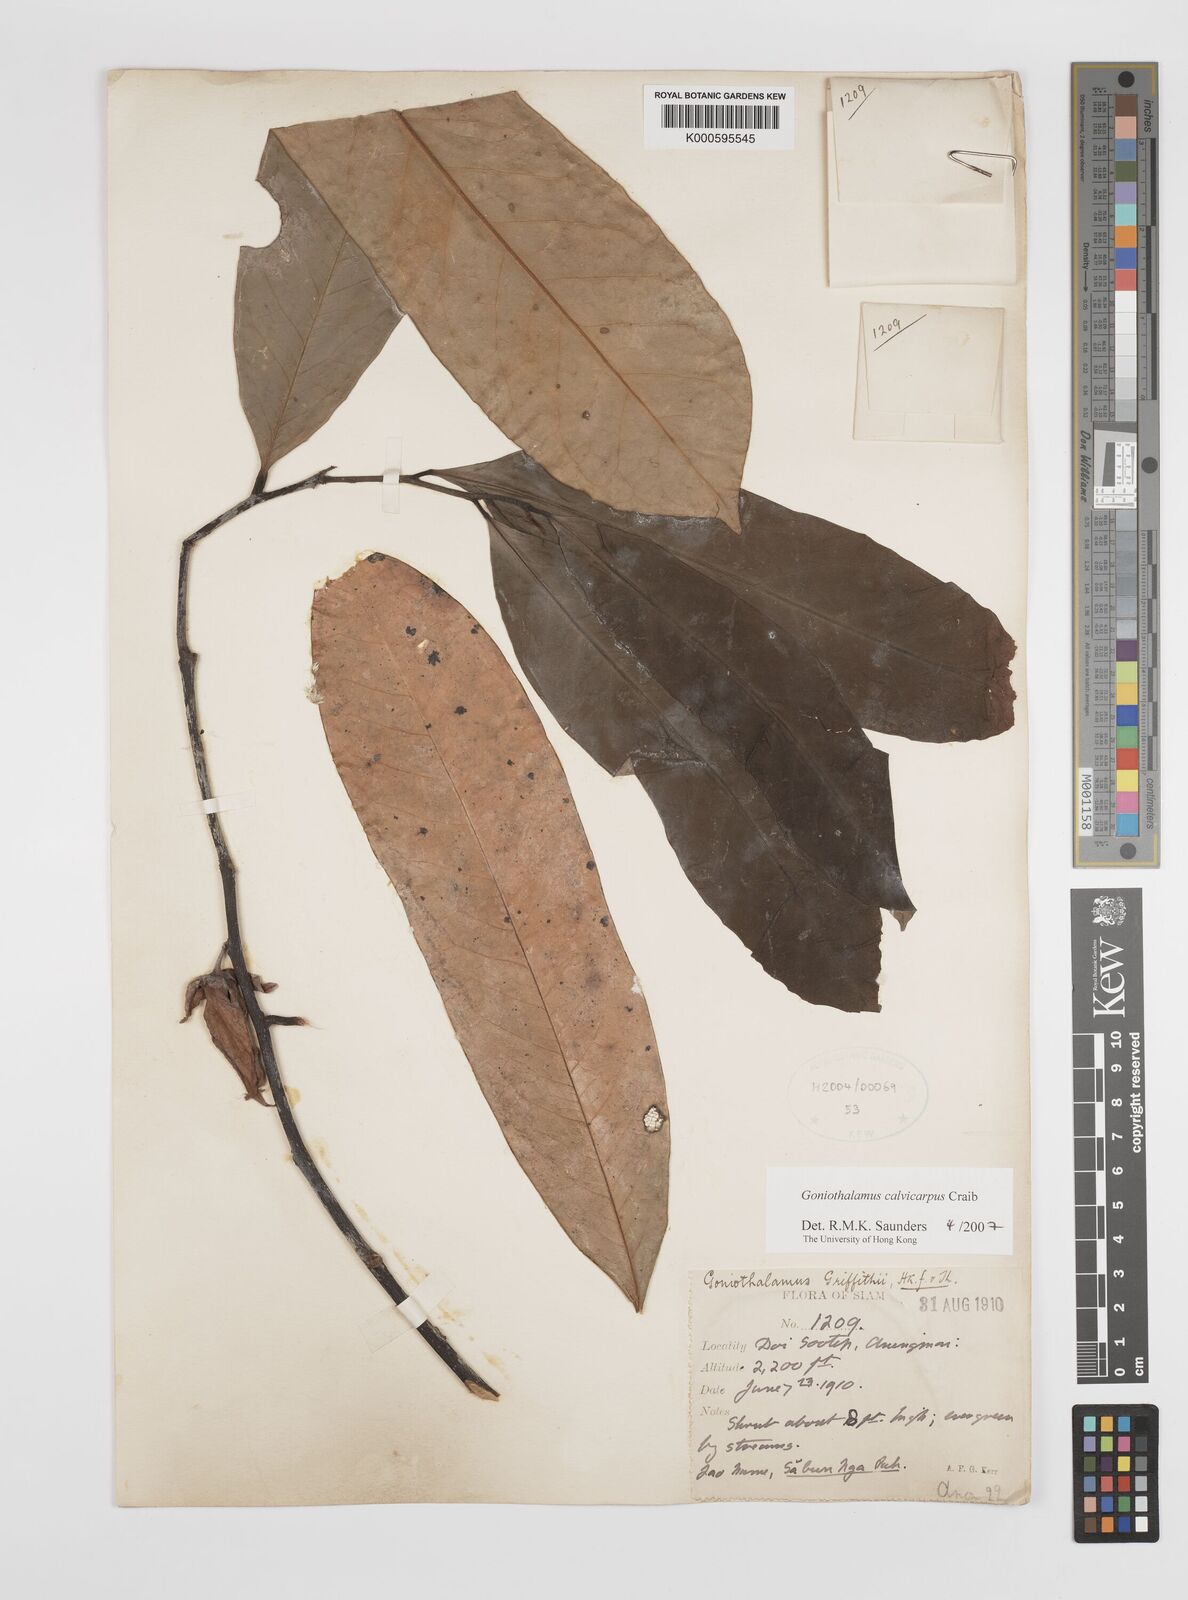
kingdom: Plantae
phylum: Tracheophyta
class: Magnoliopsida
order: Magnoliales
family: Annonaceae
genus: Goniothalamus
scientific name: Goniothalamus calvicarpus
